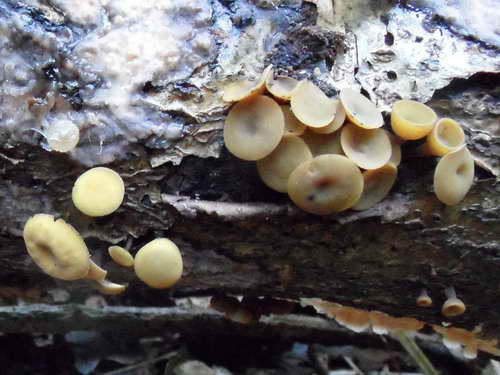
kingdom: Fungi
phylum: Ascomycota
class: Leotiomycetes
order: Helotiales
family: Rutstroemiaceae
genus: Rutstroemia
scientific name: Rutstroemia firma
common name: gren-brunskive
